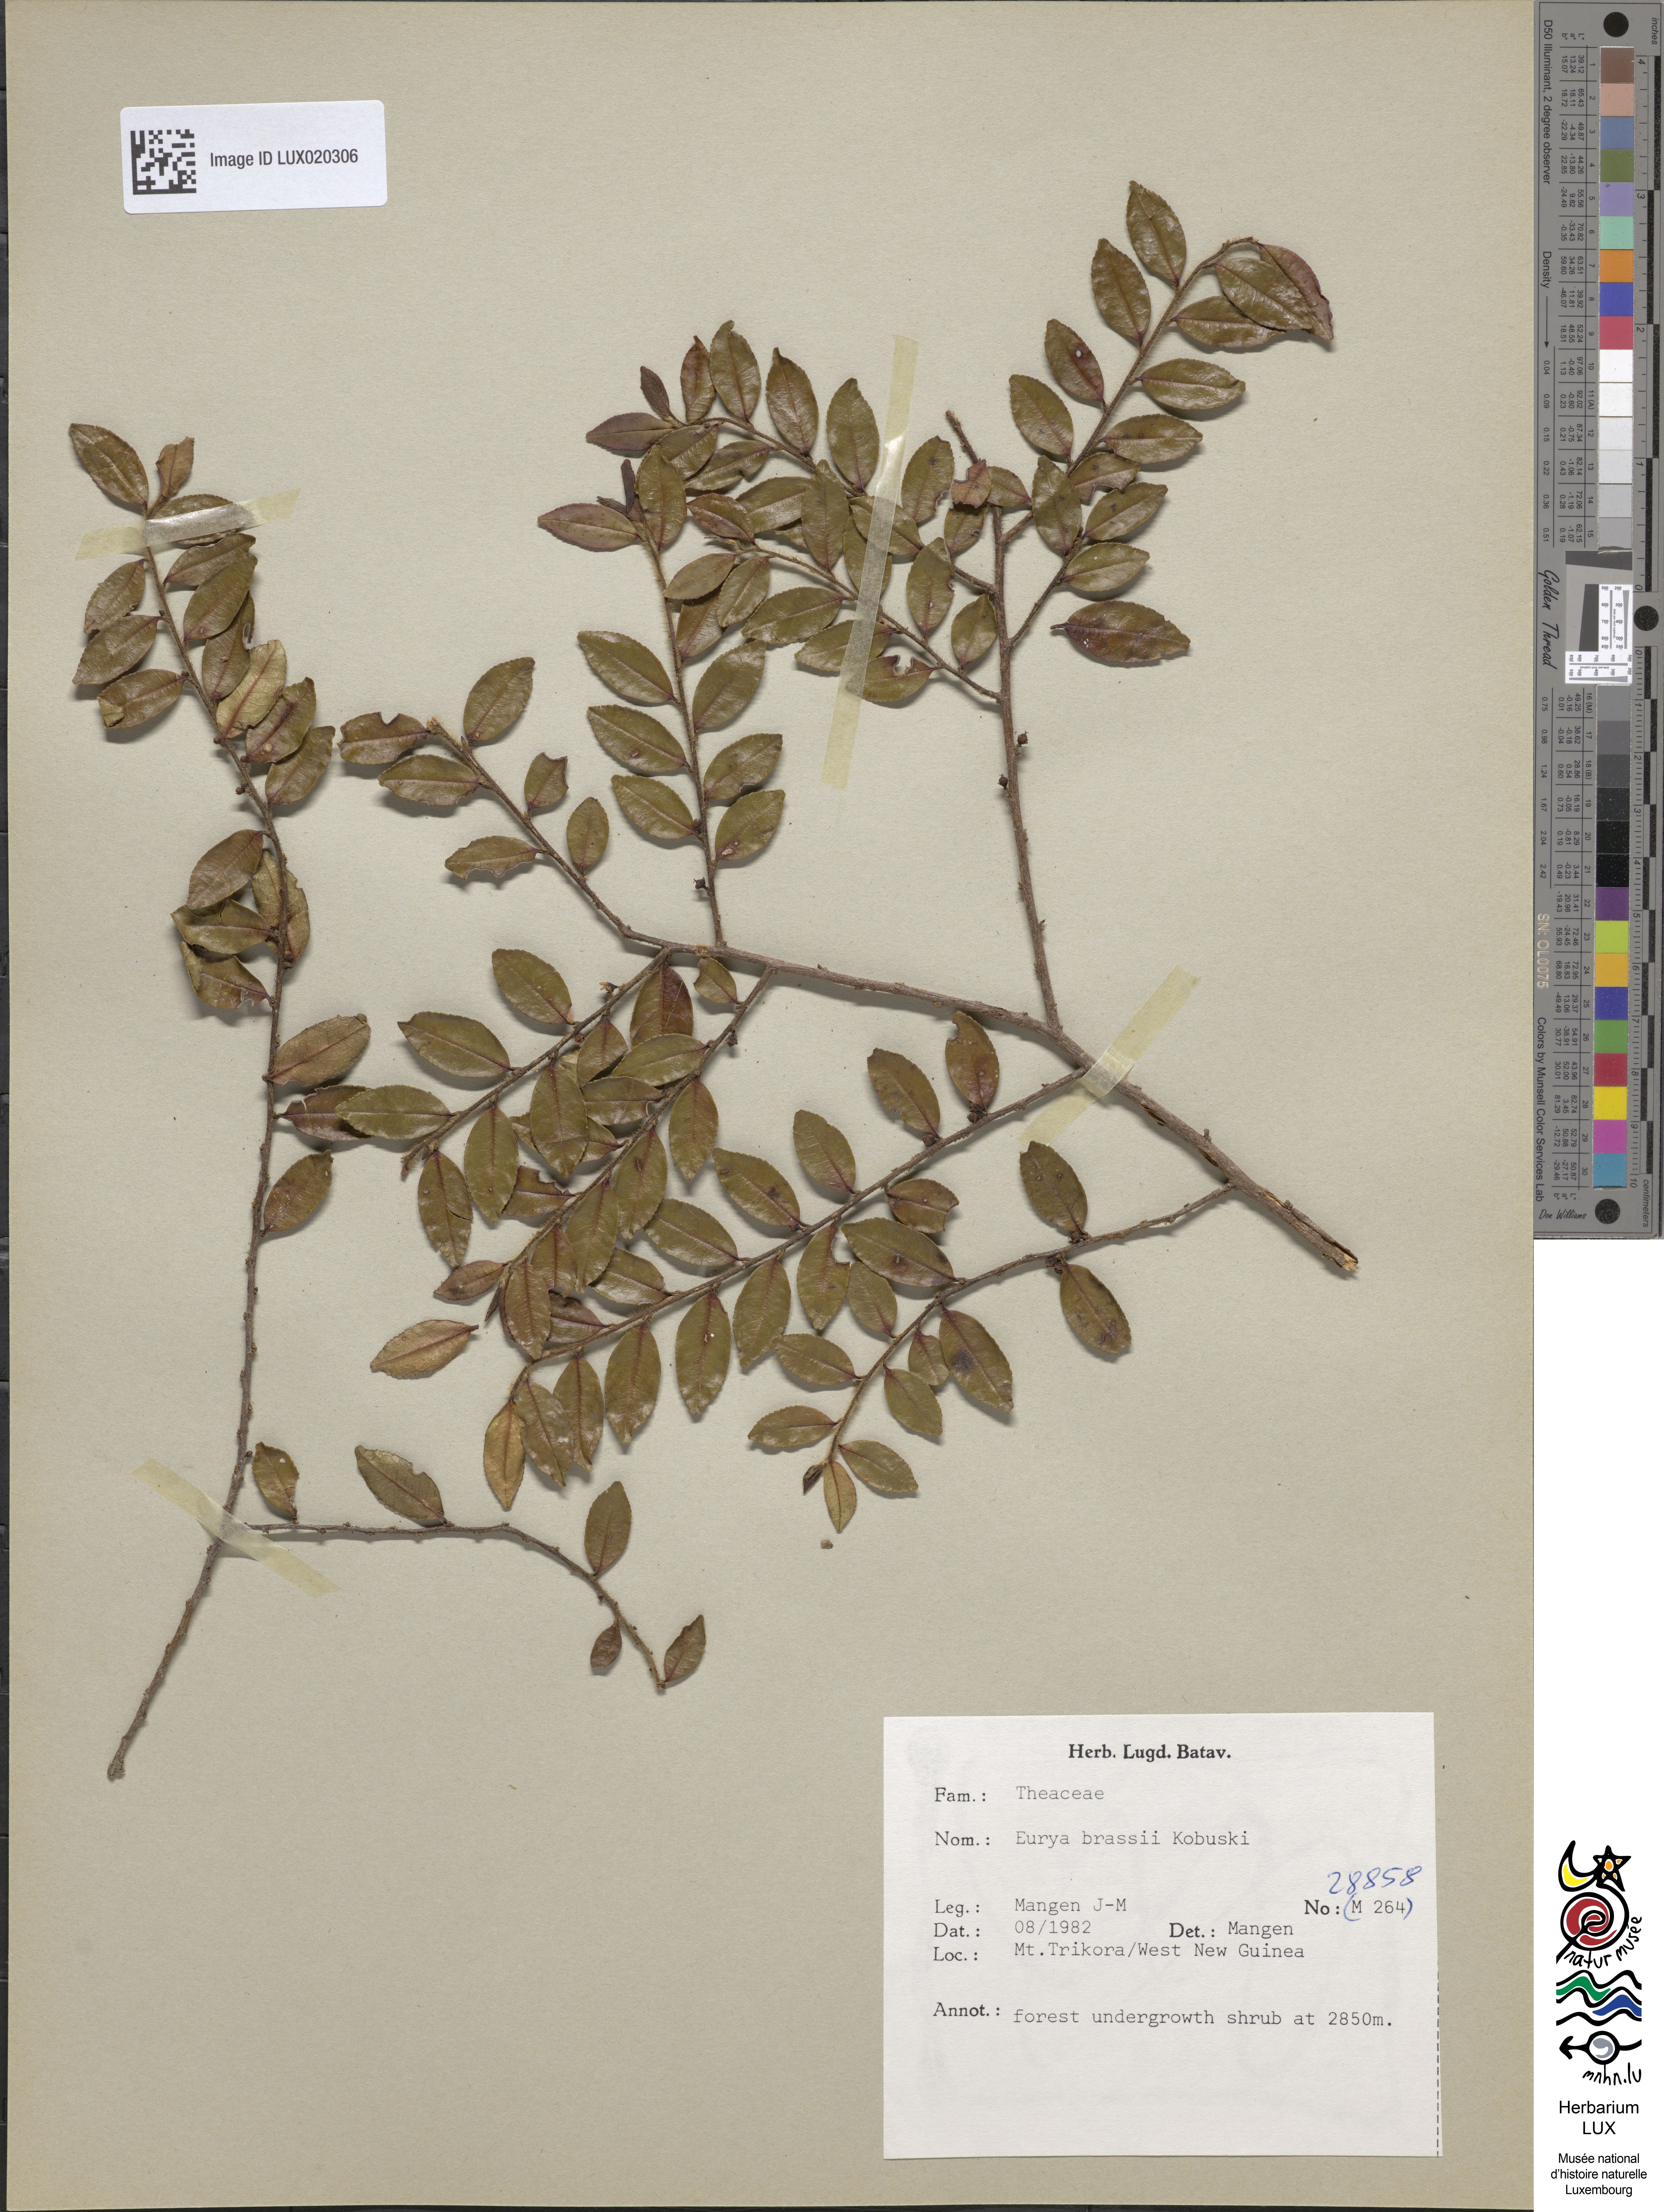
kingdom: Plantae
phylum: Tracheophyta
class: Magnoliopsida
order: Ericales
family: Pentaphylacaceae
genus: Eurya
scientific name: Eurya brassii
